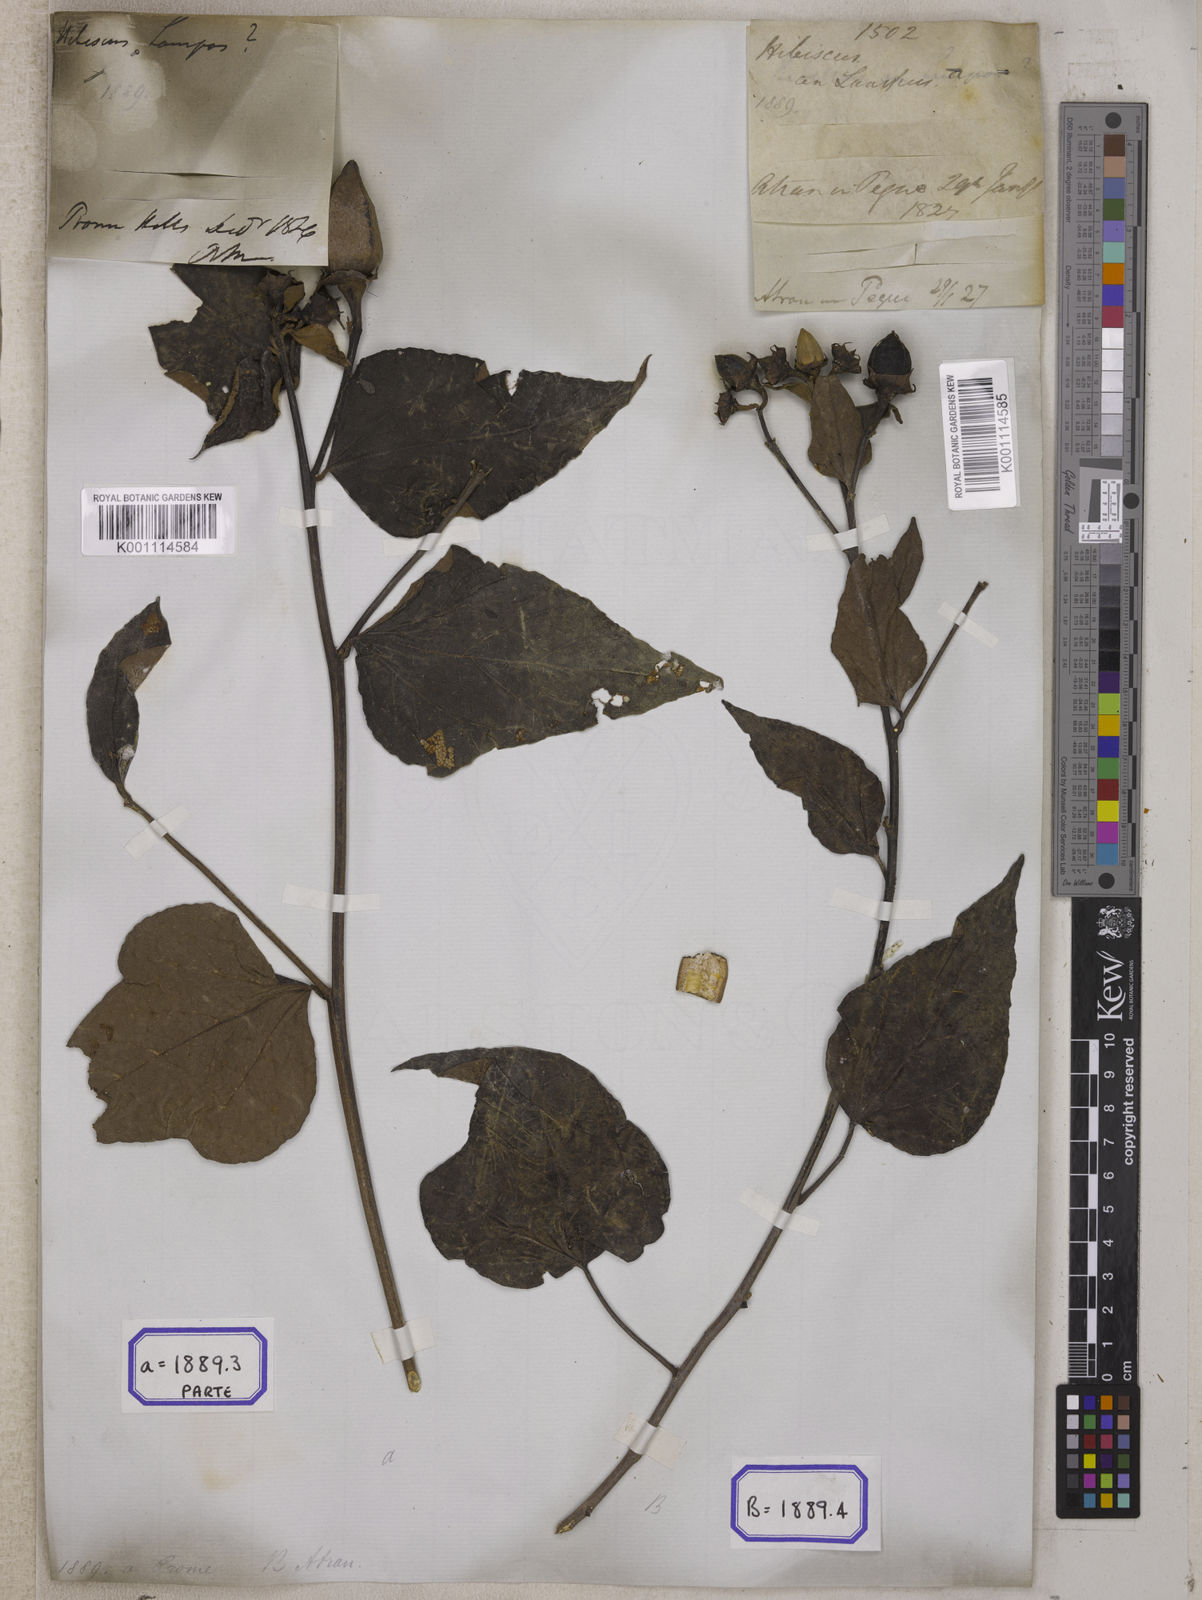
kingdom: Plantae
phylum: Tracheophyta
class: Magnoliopsida
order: Malvales
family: Malvaceae
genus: Thespesia
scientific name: Thespesia lampas
